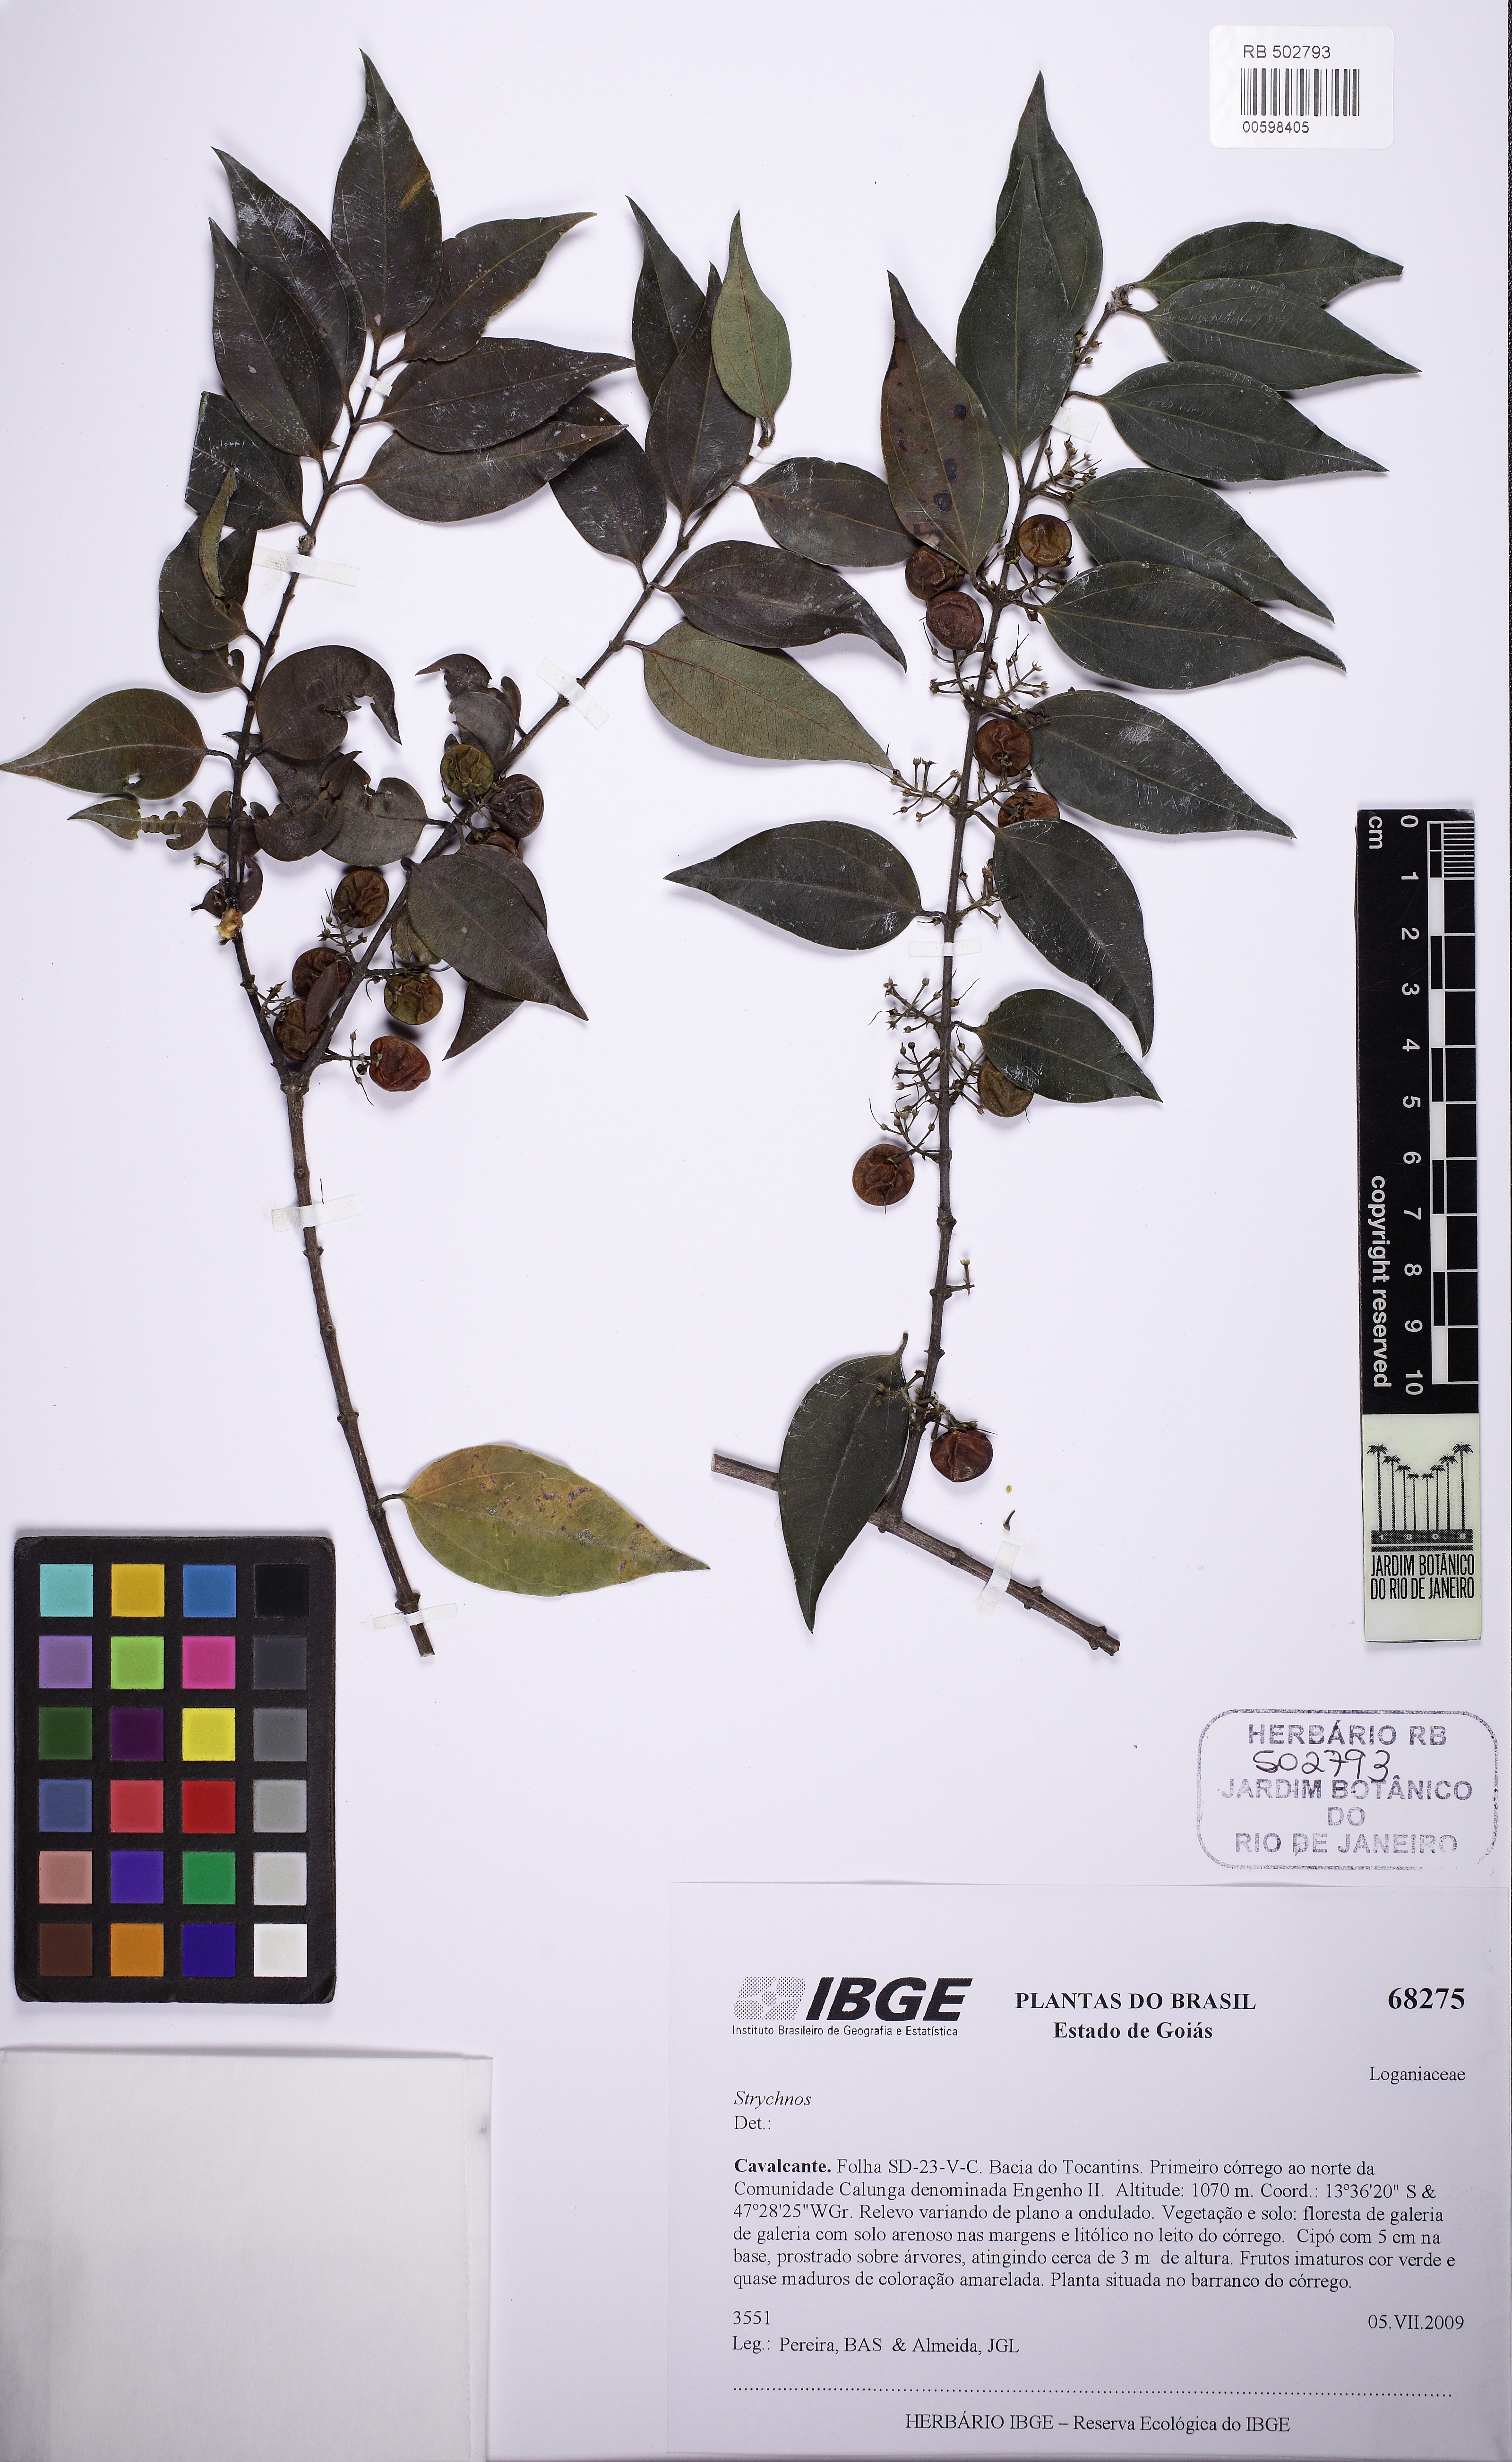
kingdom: Plantae
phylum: Tracheophyta
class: Magnoliopsida
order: Gentianales
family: Loganiaceae
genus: Strychnos
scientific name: Strychnos bicolor
